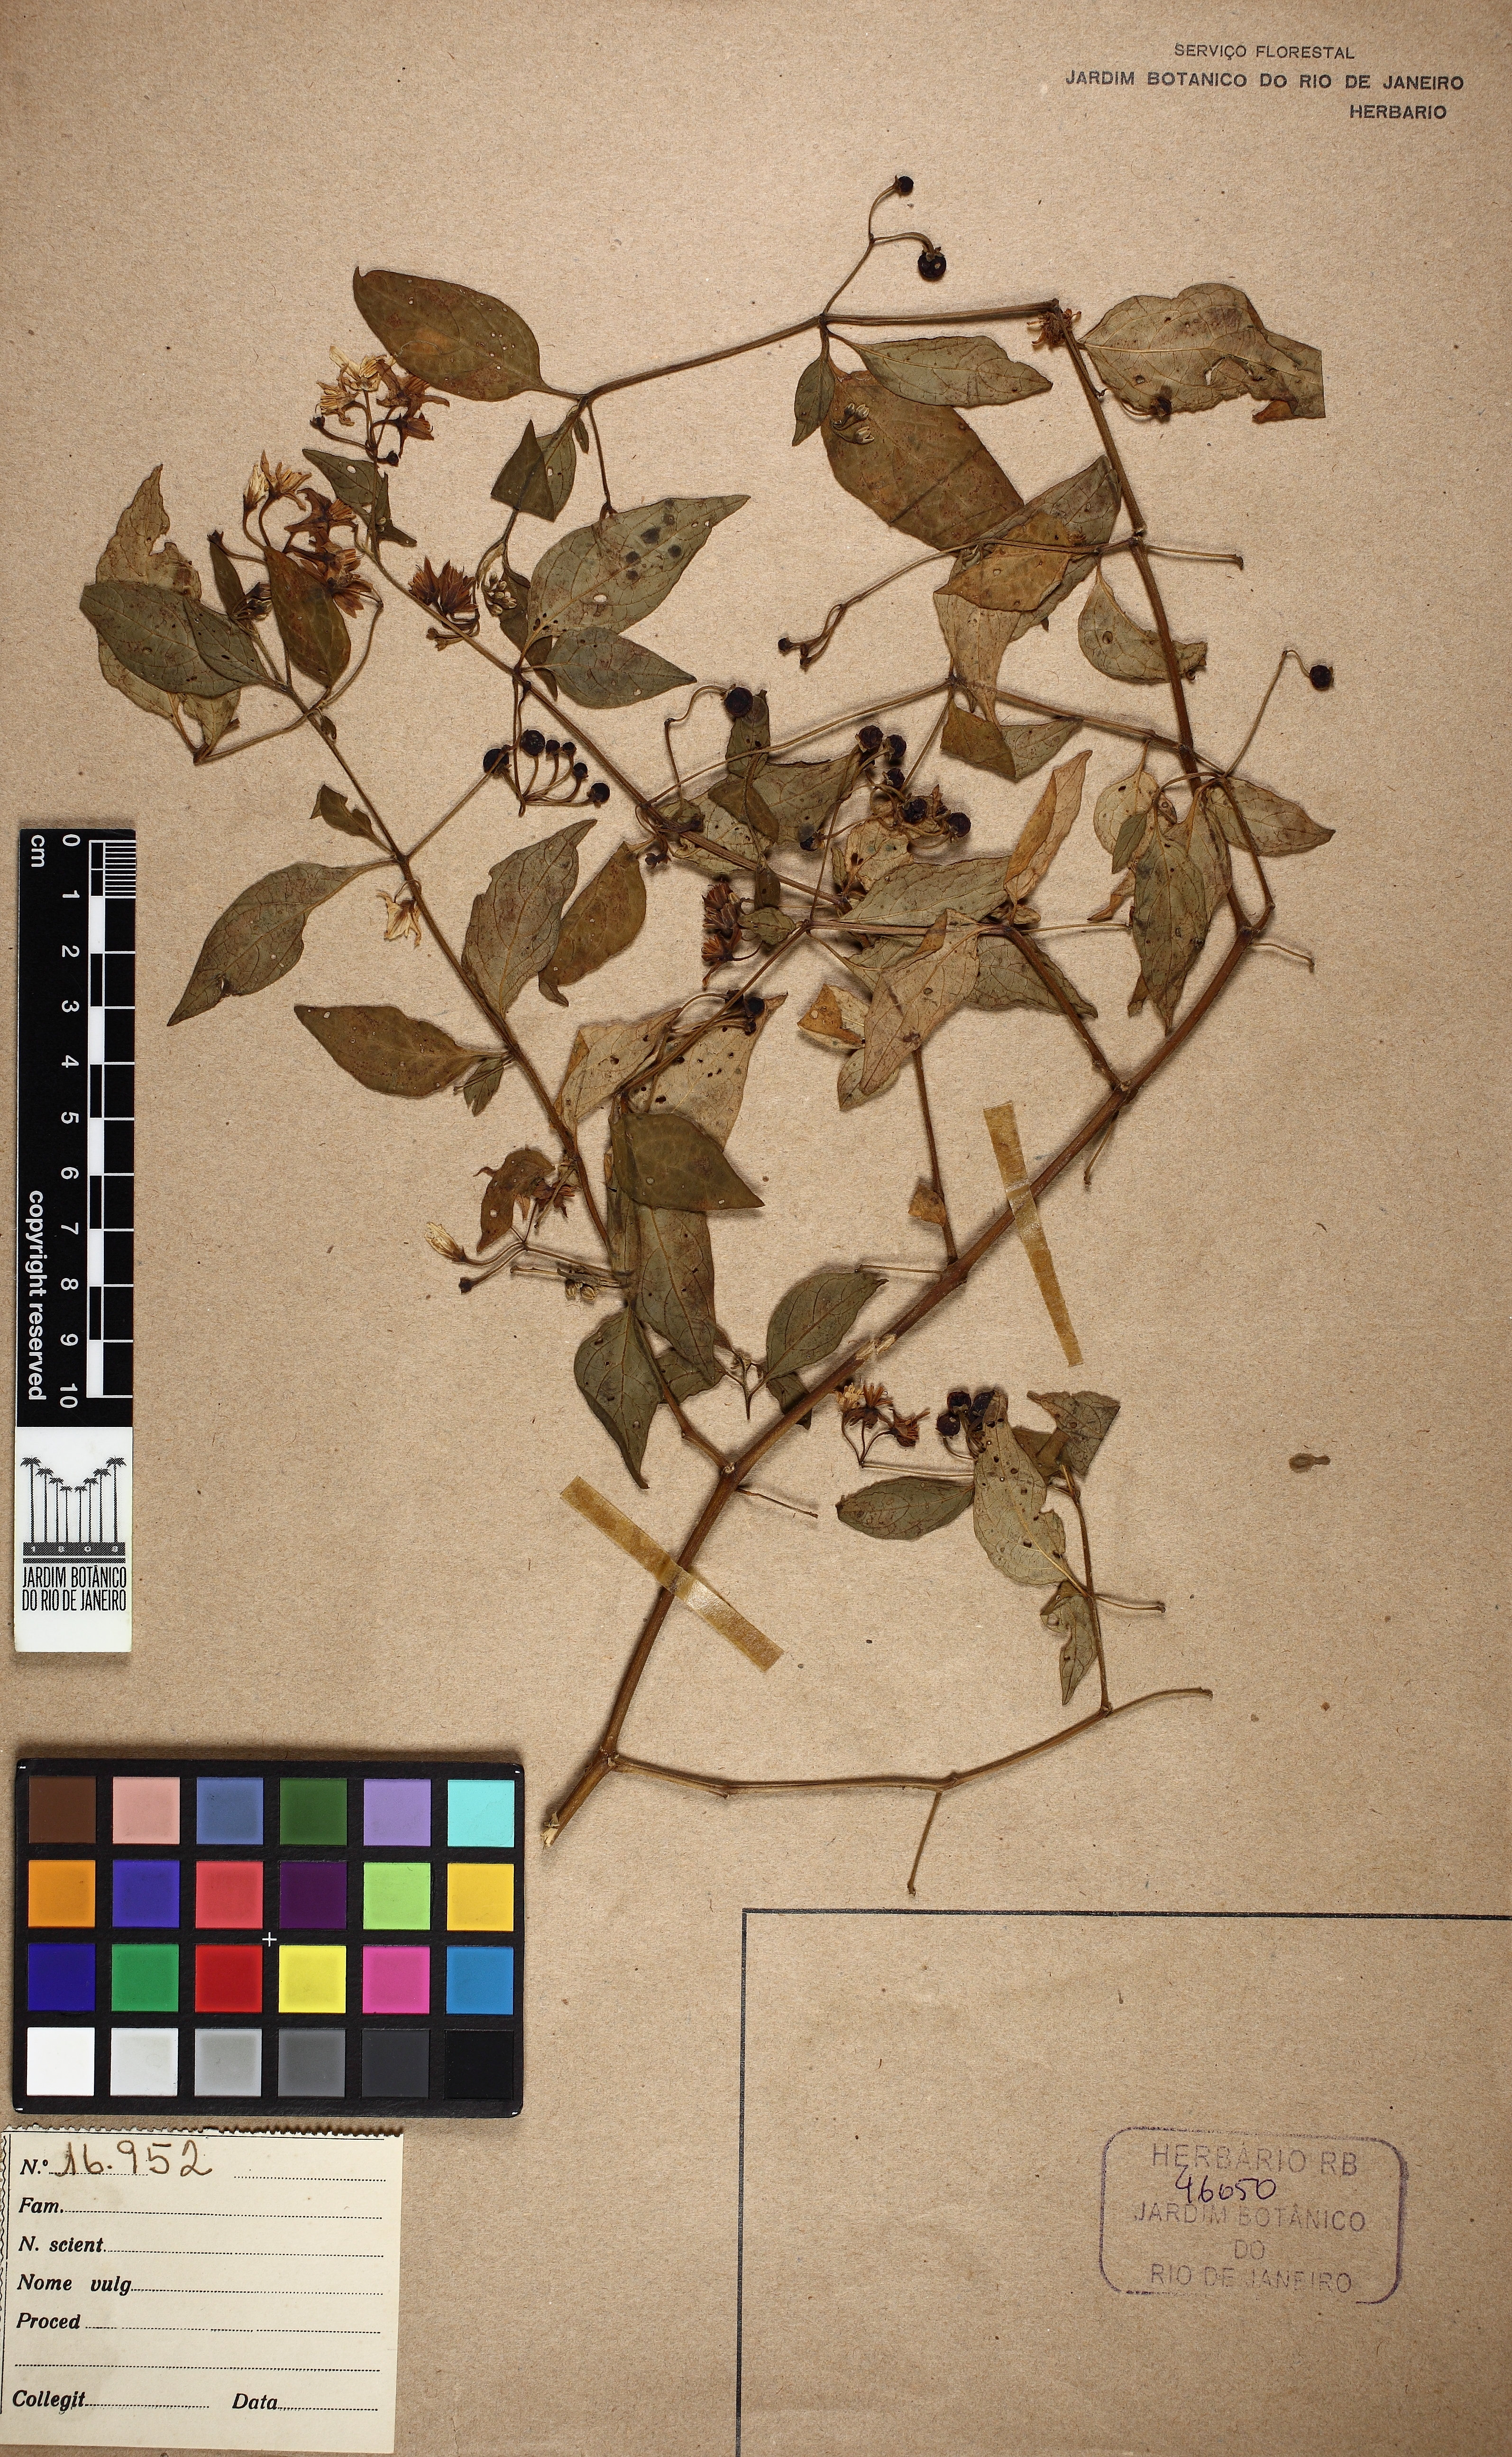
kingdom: Plantae
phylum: Tracheophyta
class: Magnoliopsida
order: Solanales
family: Solanaceae
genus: Solanum
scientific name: Solanum enantiophyllanthum
